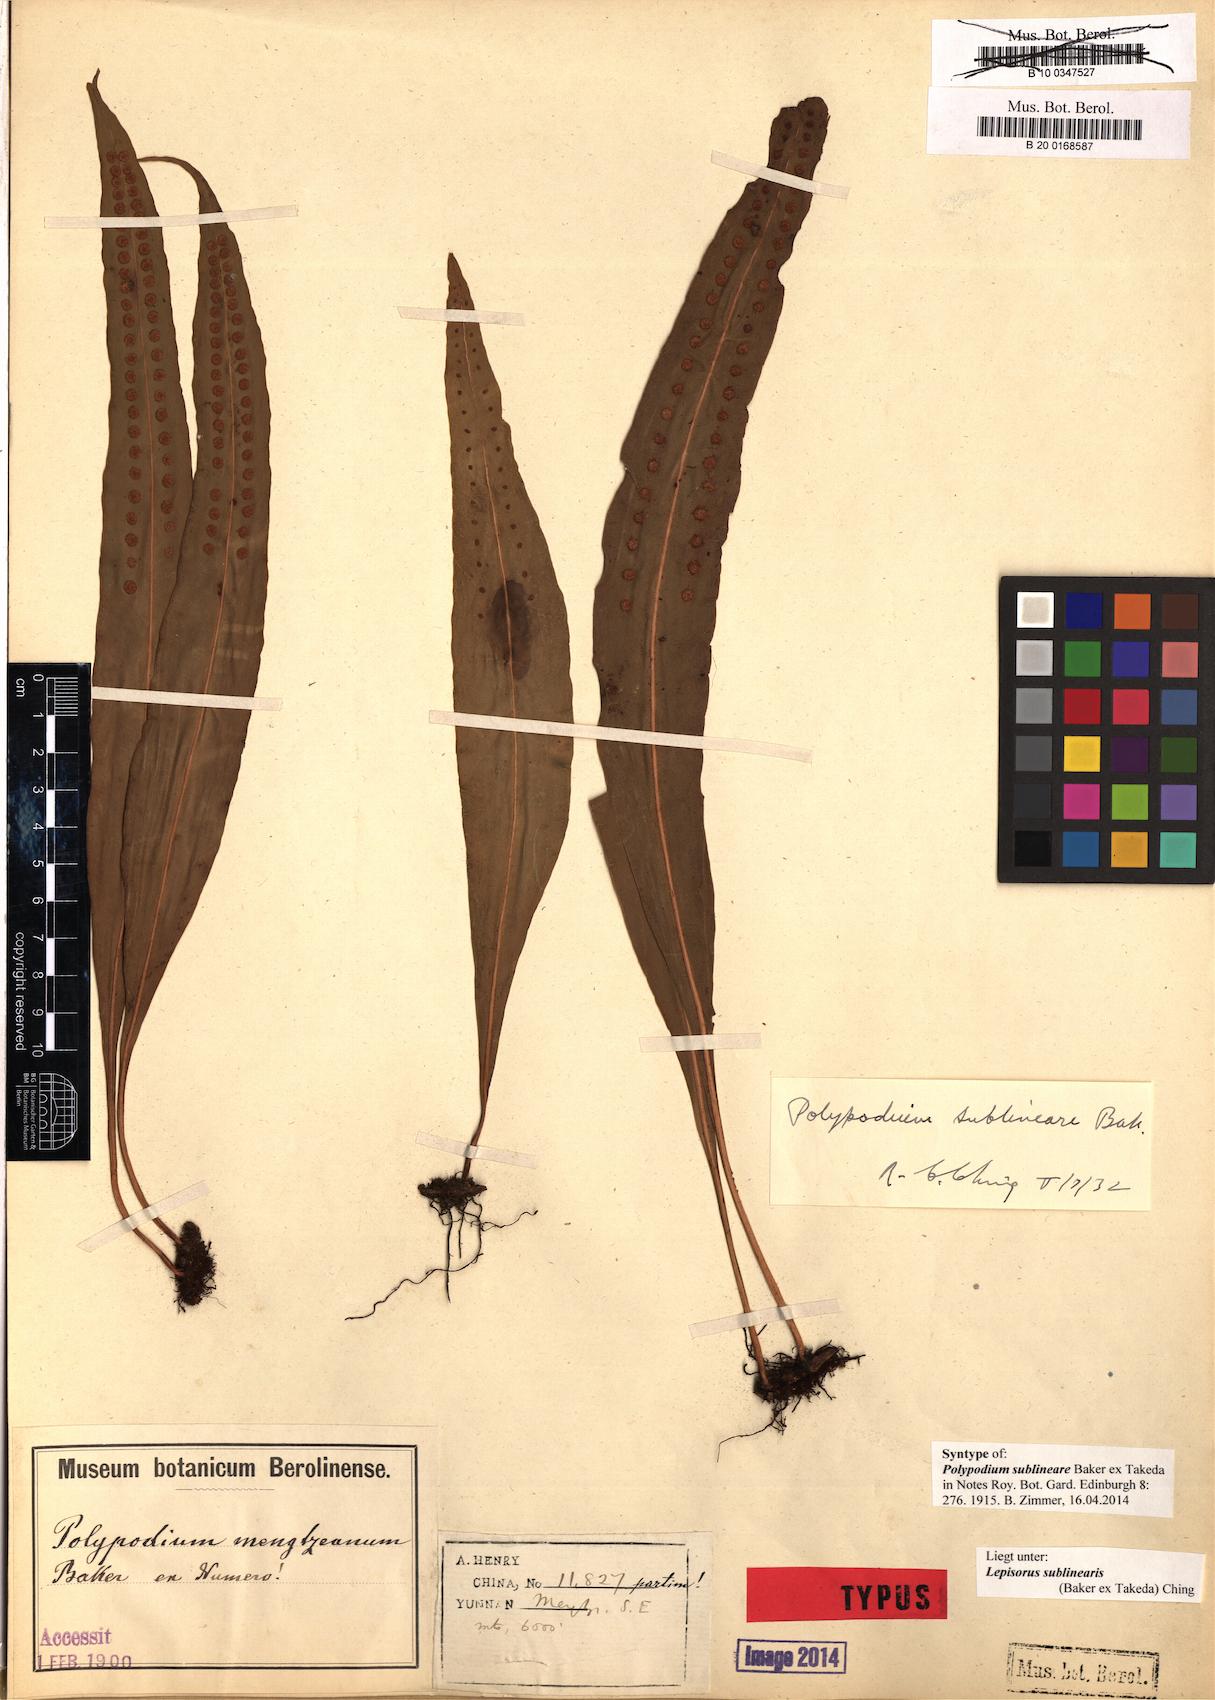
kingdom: Plantae
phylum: Tracheophyta
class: Polypodiopsida
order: Polypodiales
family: Polypodiaceae
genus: Lepisorus
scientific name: Lepisorus sublinearis
